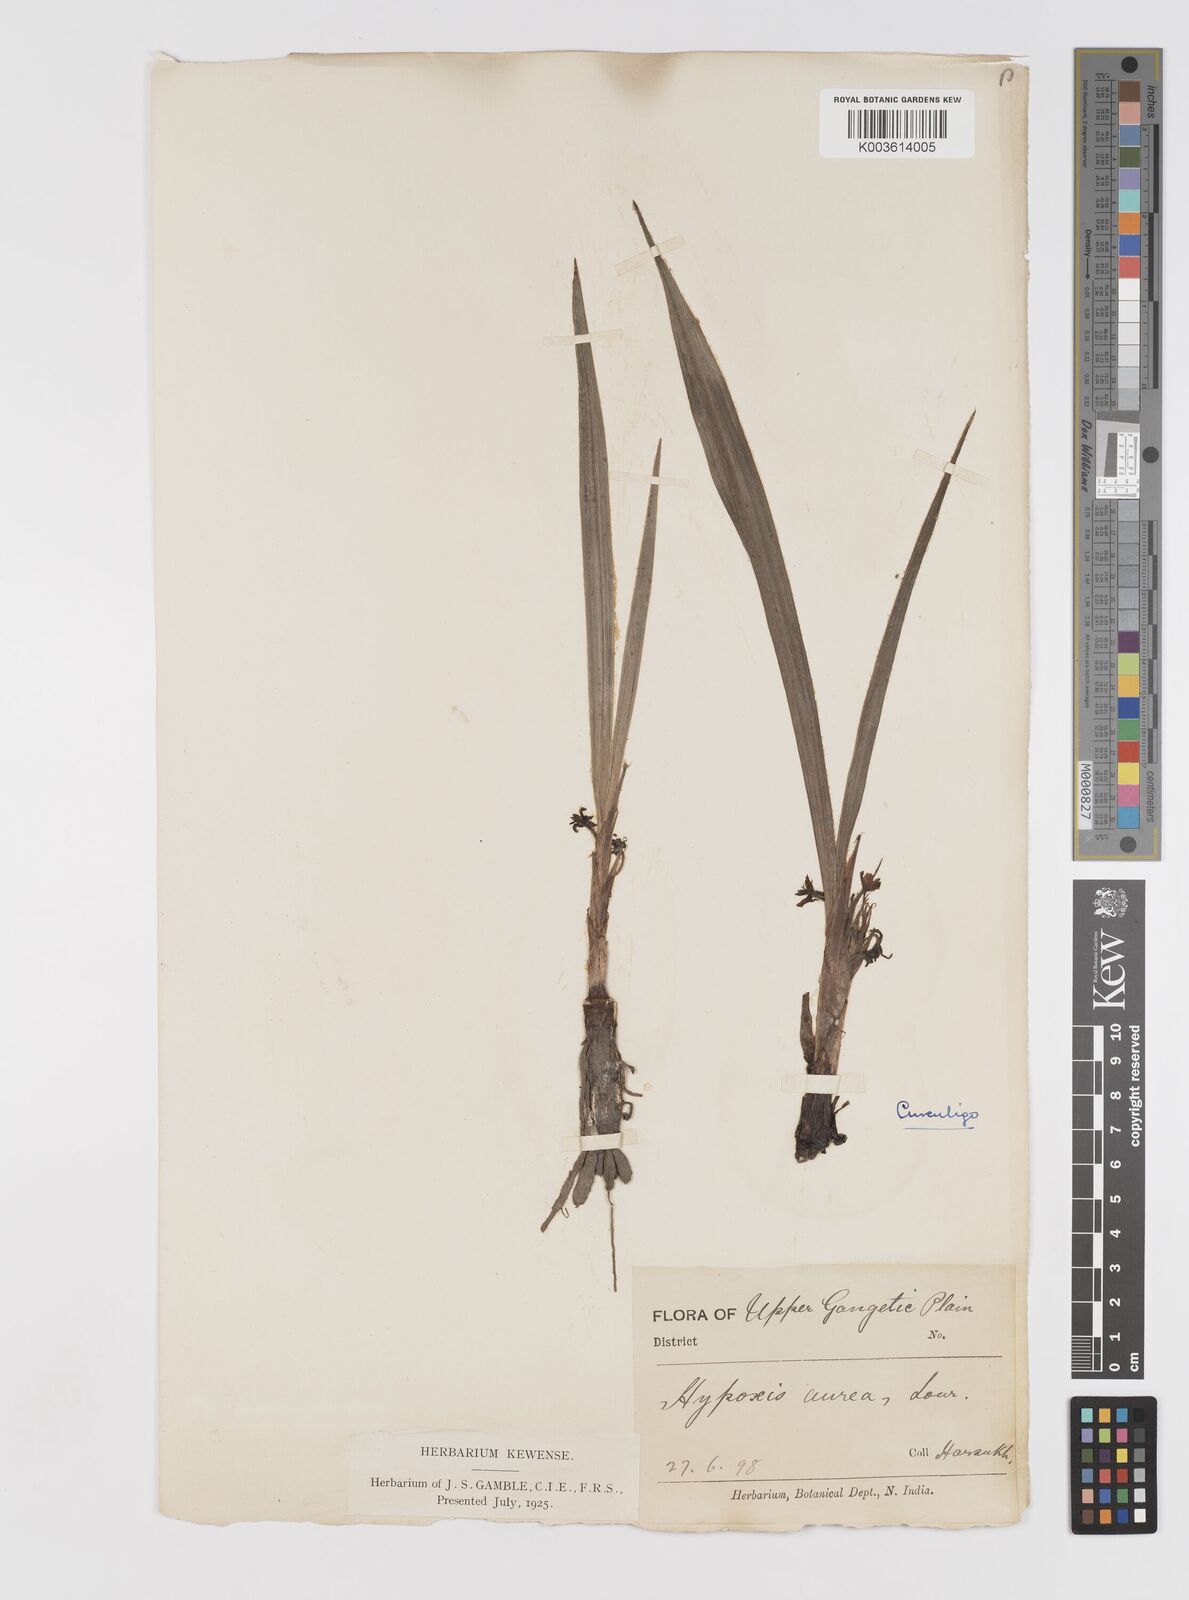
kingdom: Plantae
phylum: Tracheophyta
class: Liliopsida
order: Asparagales
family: Hypoxidaceae
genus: Curculigo
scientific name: Curculigo orchioides
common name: Golden eye-grass
